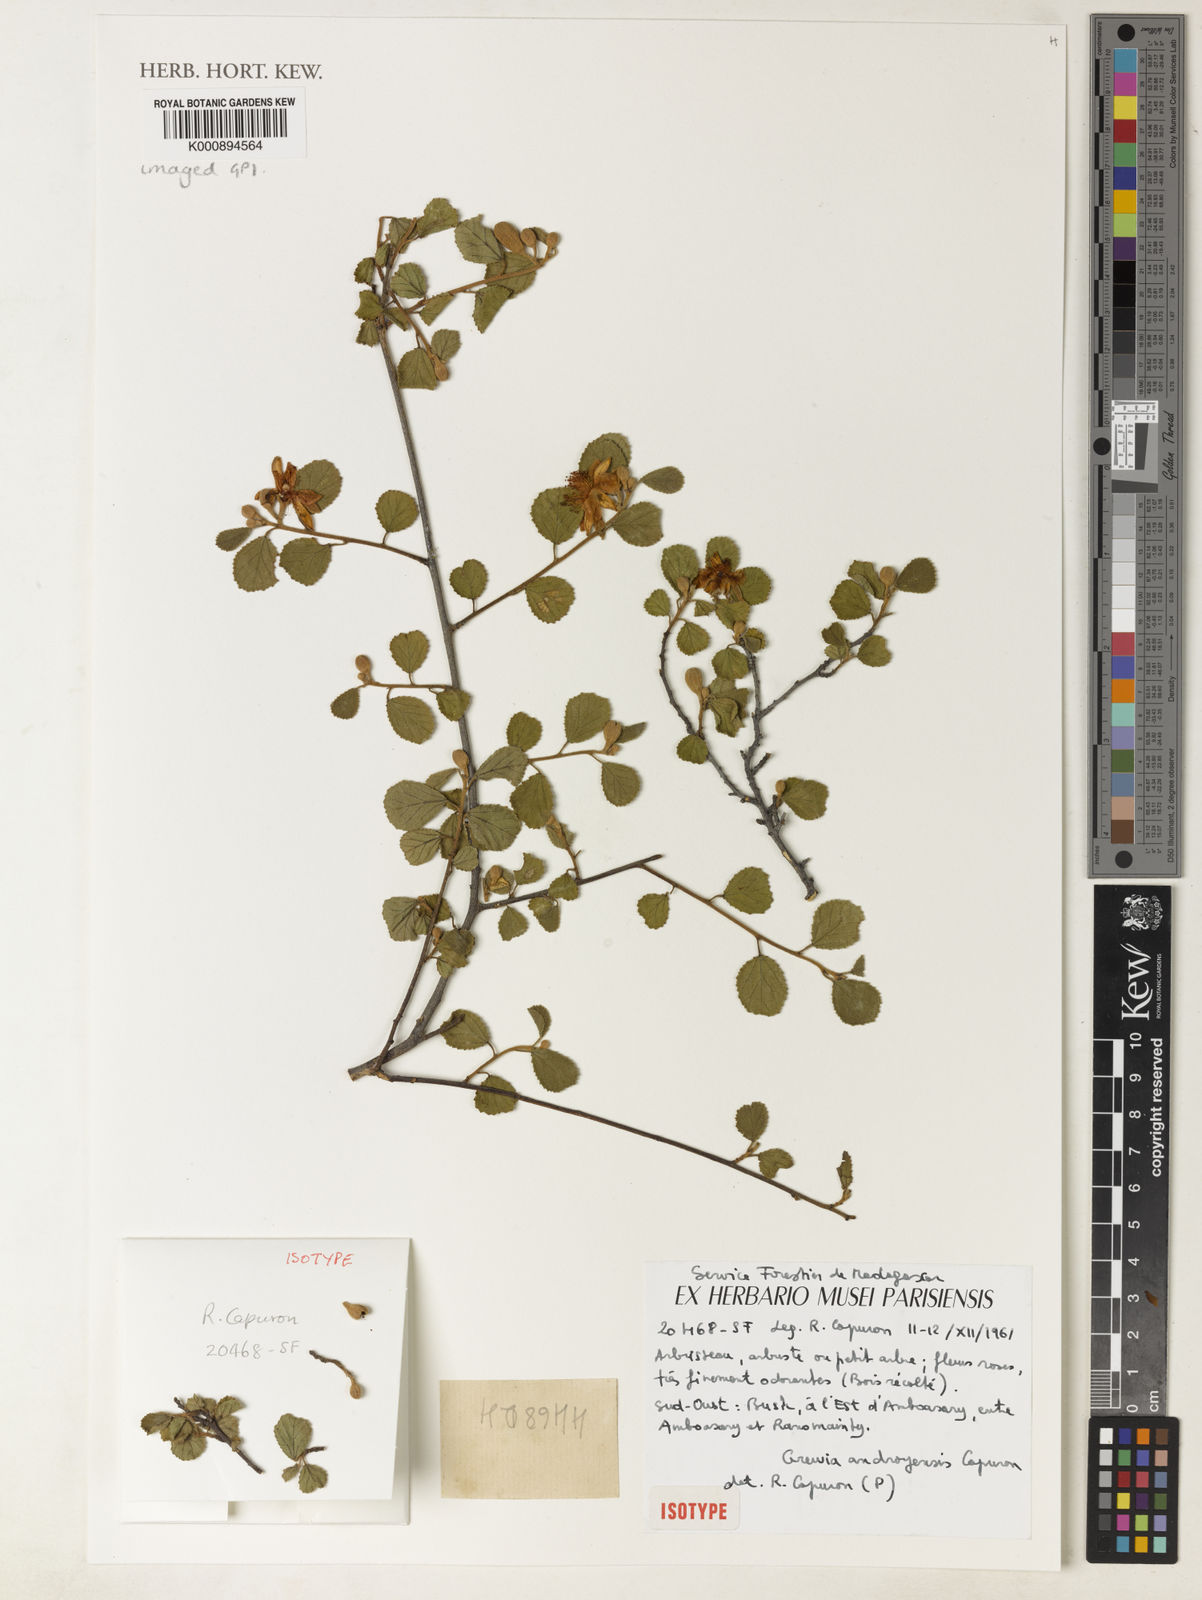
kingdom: Plantae
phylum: Tracheophyta
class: Magnoliopsida
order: Malvales
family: Malvaceae
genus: Grewia
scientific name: Grewia
